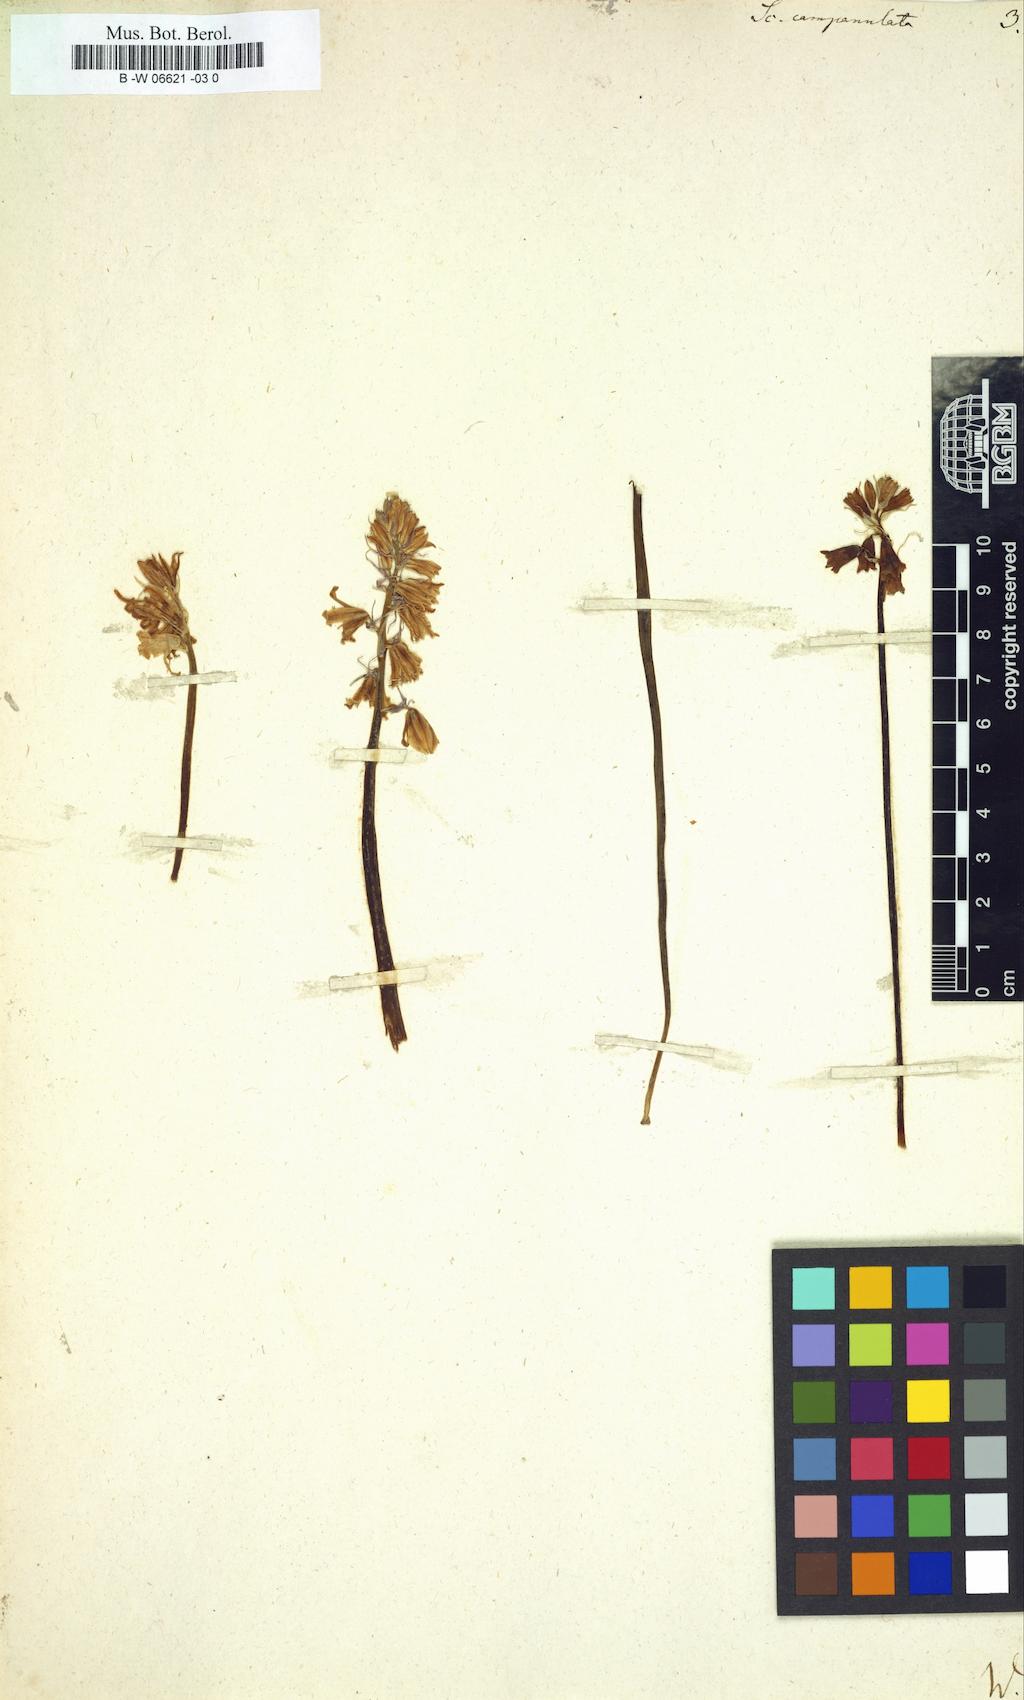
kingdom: Plantae
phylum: Tracheophyta
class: Liliopsida
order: Asparagales
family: Asparagaceae
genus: Hyacinthoides
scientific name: Hyacinthoides hispanica
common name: Spanish bluebell
